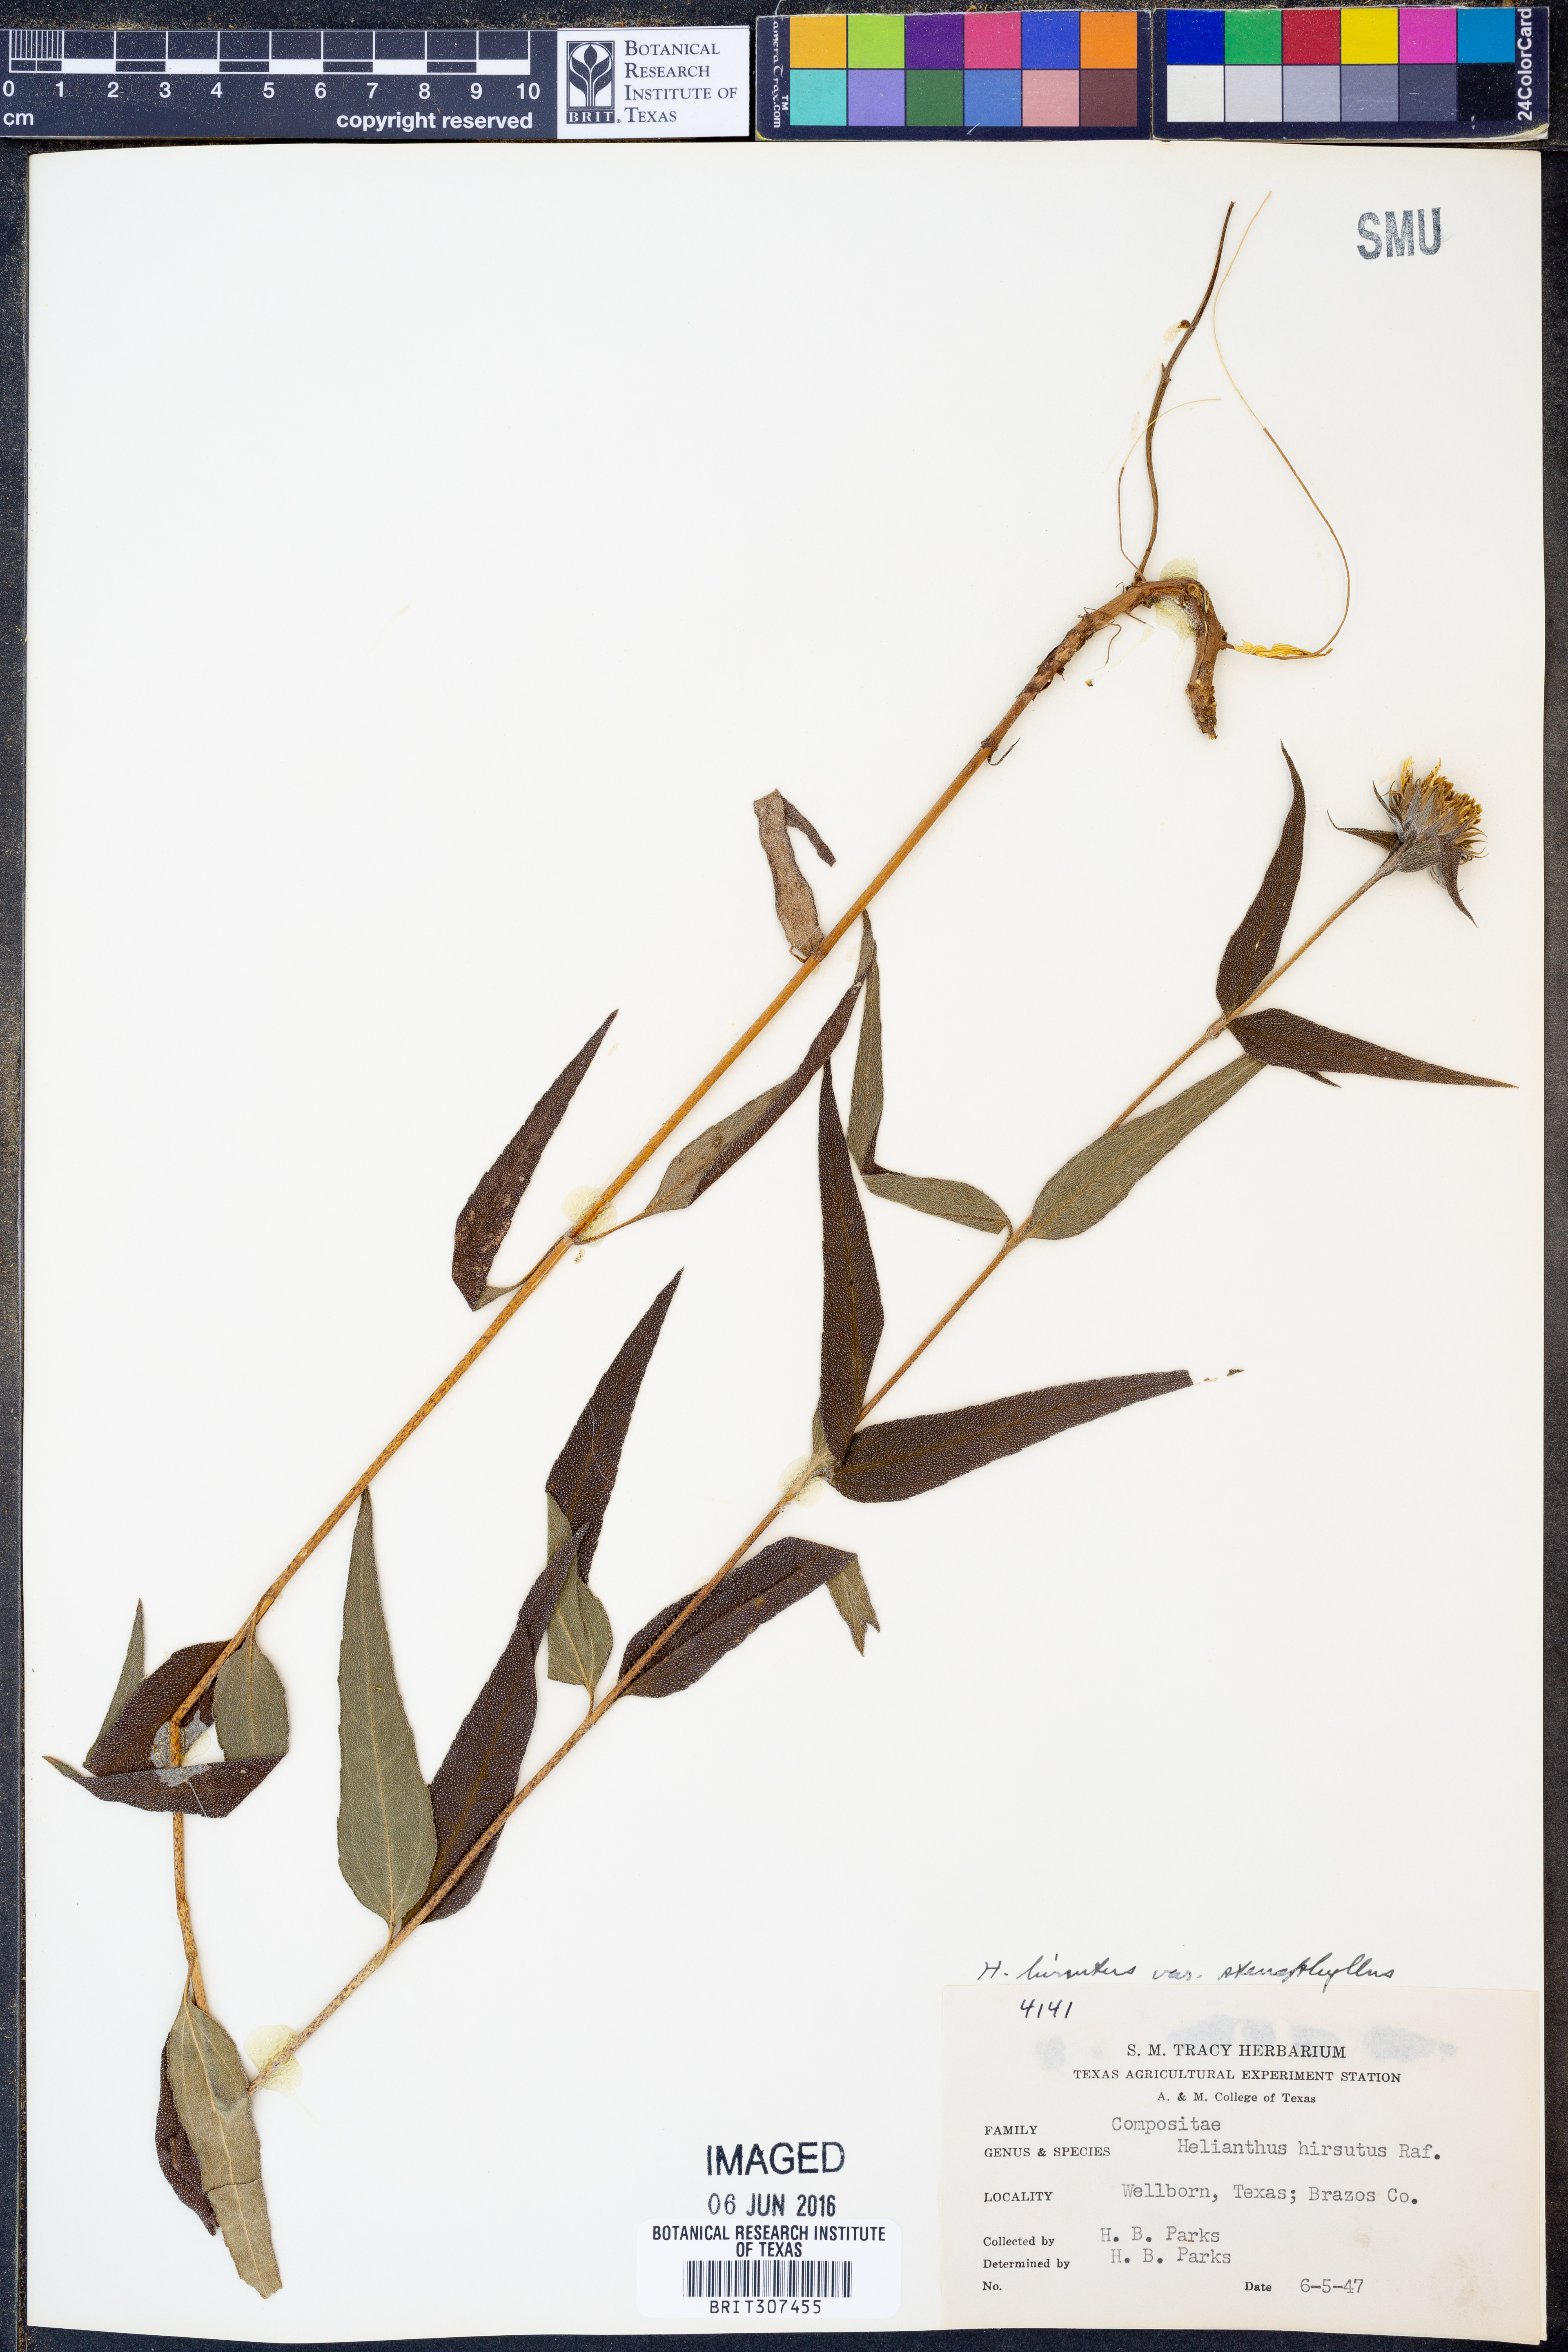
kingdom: Plantae
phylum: Tracheophyta
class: Magnoliopsida
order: Asterales
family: Asteraceae
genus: Helianthus
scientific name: Helianthus hirsutus
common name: Hairy sunflower
